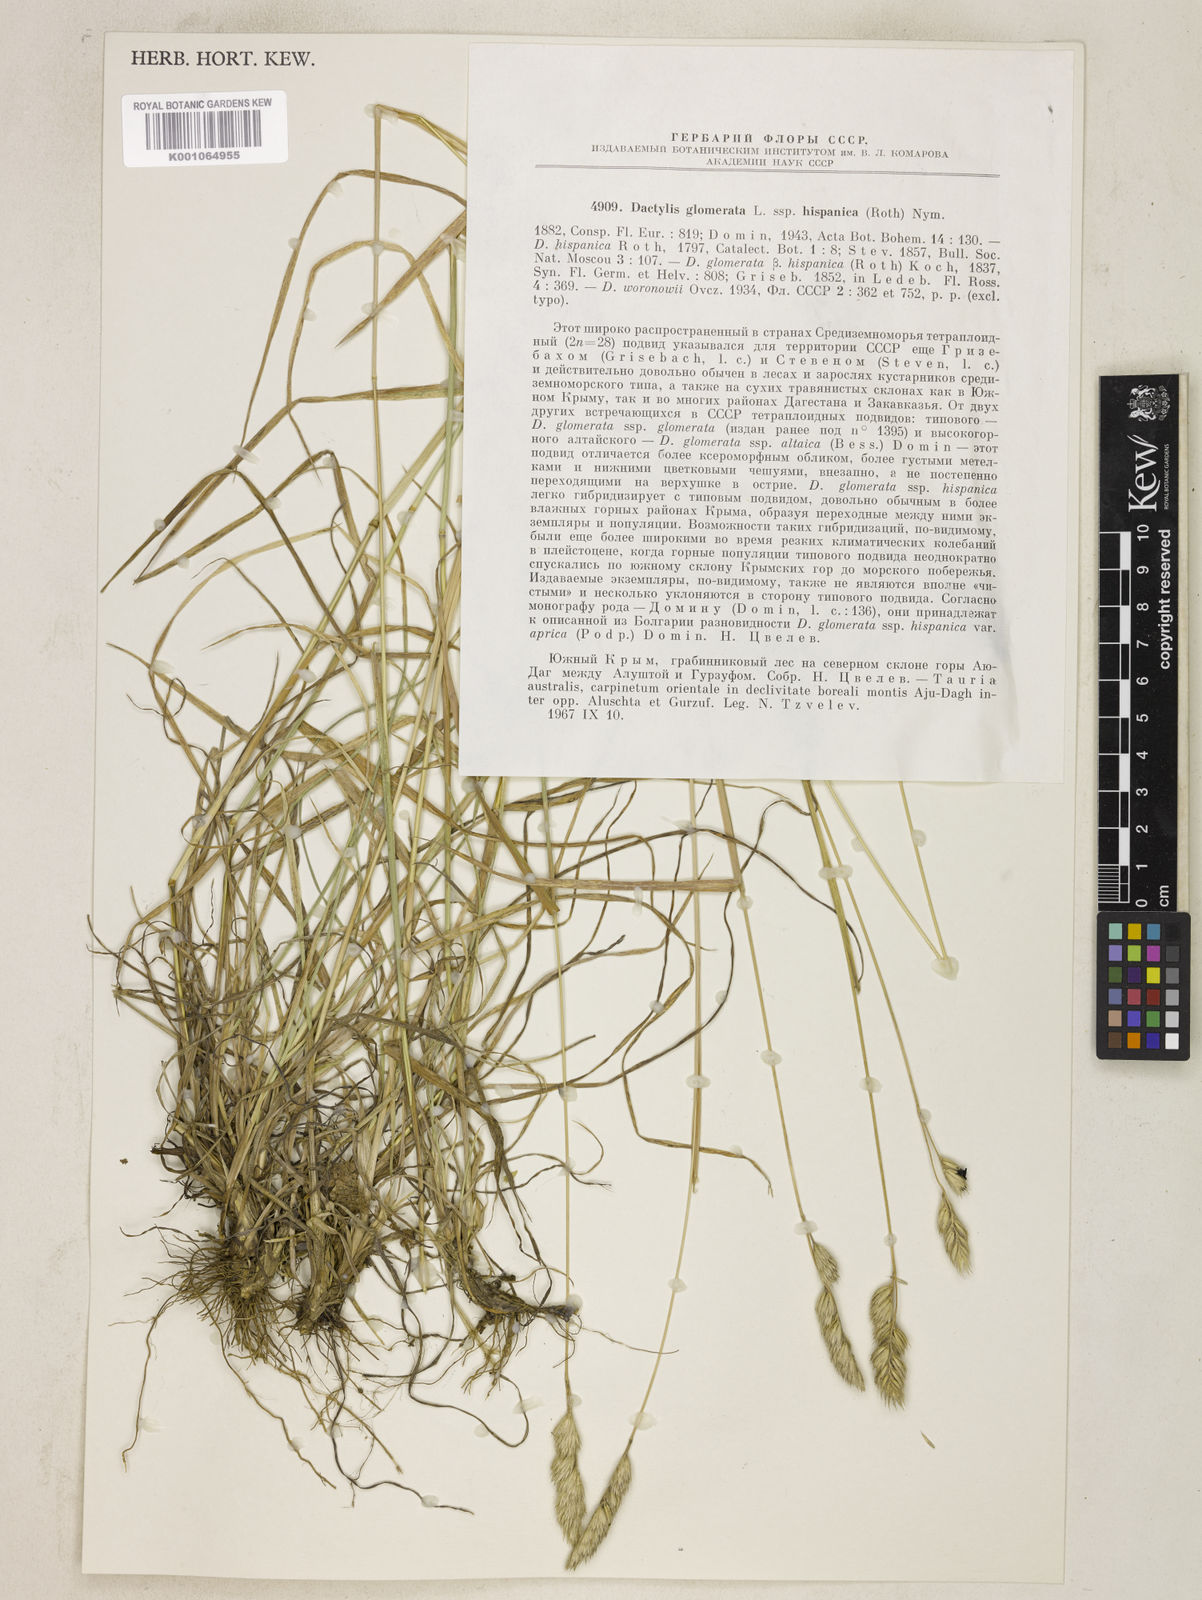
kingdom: Plantae
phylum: Tracheophyta
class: Liliopsida
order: Poales
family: Poaceae
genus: Dactylis
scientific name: Dactylis glomerata
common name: Orchardgrass
